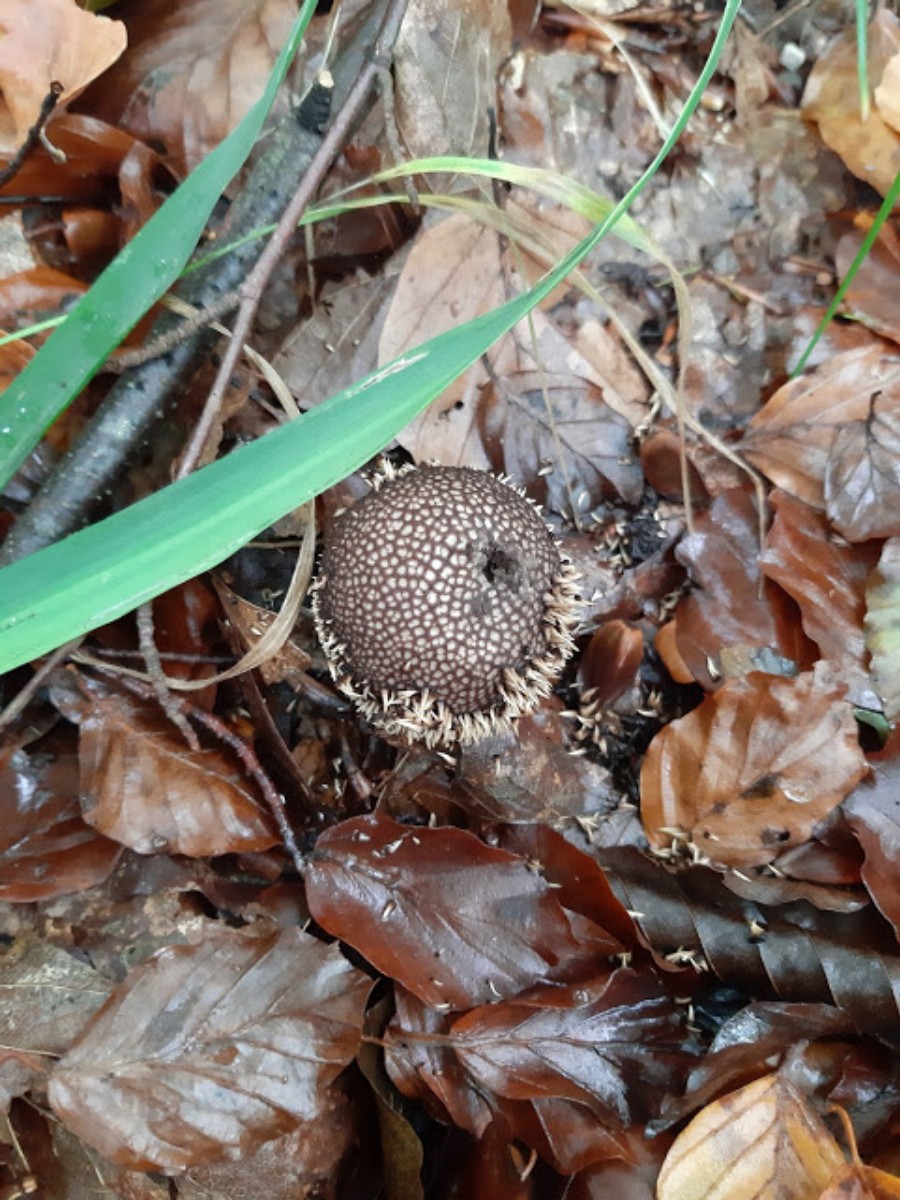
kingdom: Fungi
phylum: Basidiomycota
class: Agaricomycetes
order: Agaricales
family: Lycoperdaceae
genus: Lycoperdon
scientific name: Lycoperdon echinatum
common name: pindsvine-støvbold
